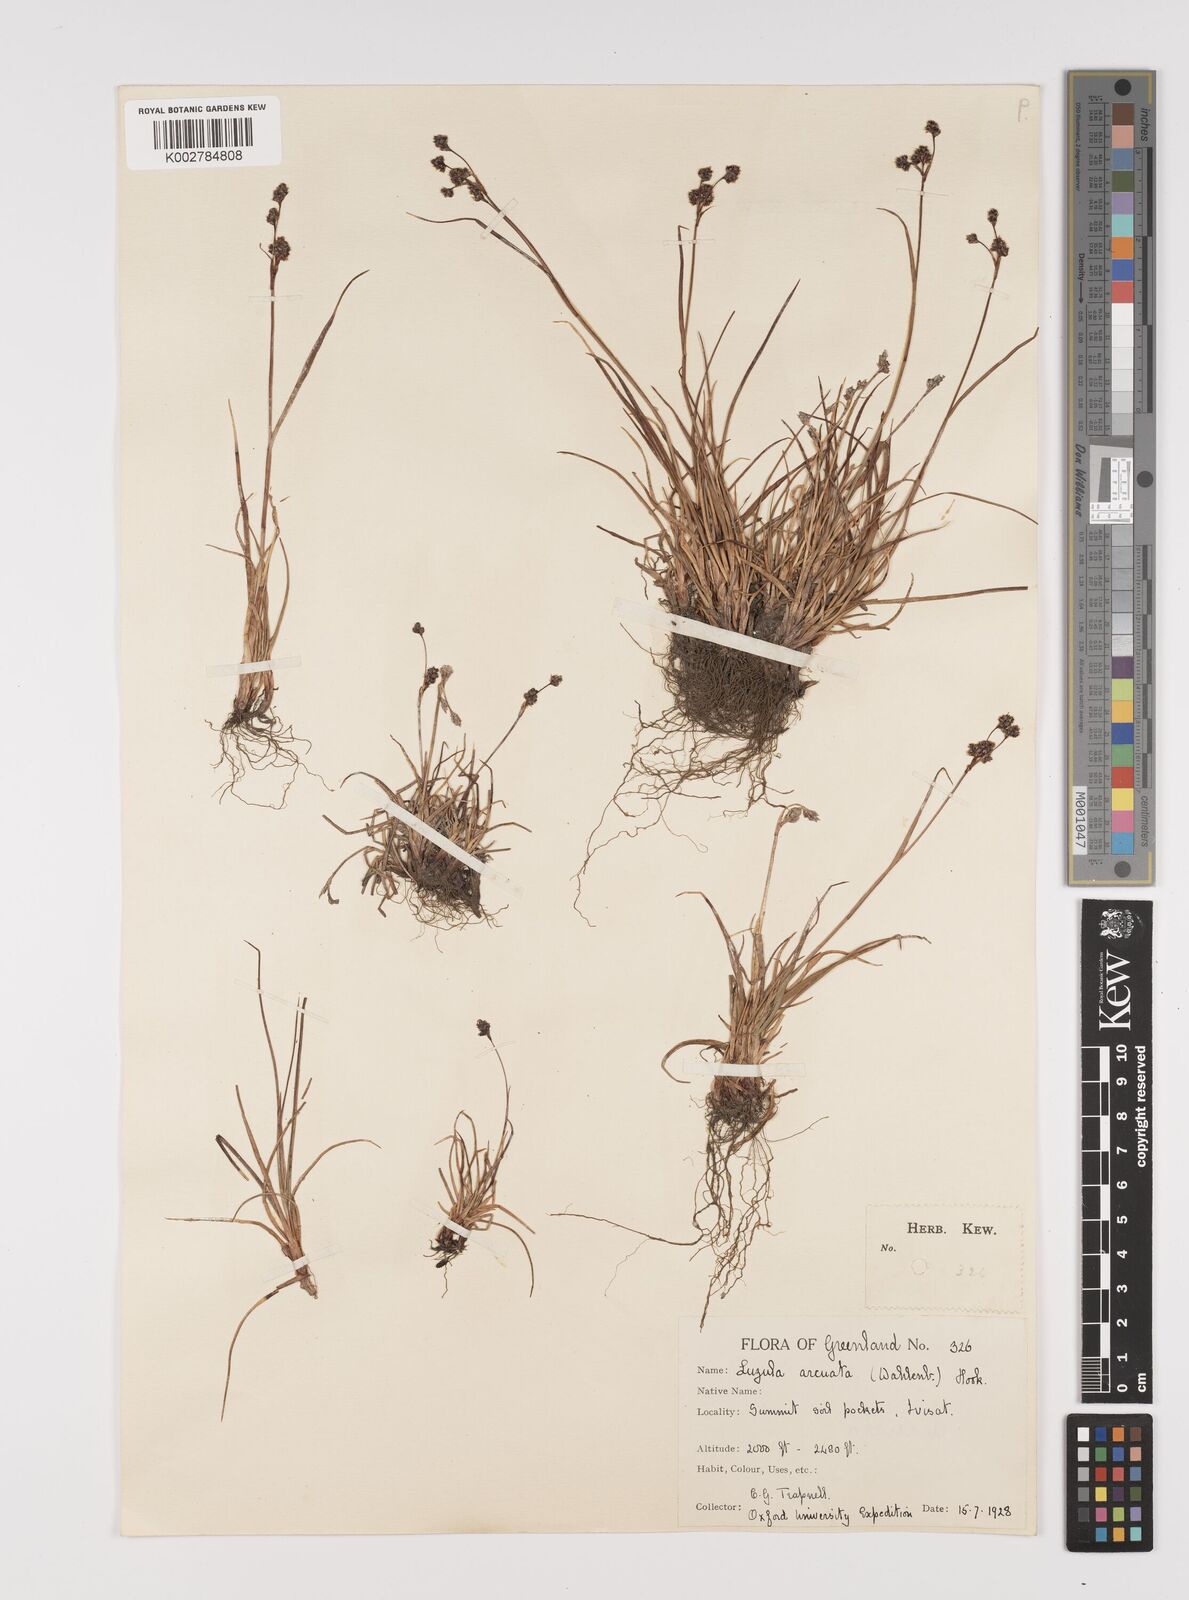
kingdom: Plantae
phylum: Tracheophyta
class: Liliopsida
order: Poales
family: Juncaceae
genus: Luzula
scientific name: Luzula confusa
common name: Northern wood rush
